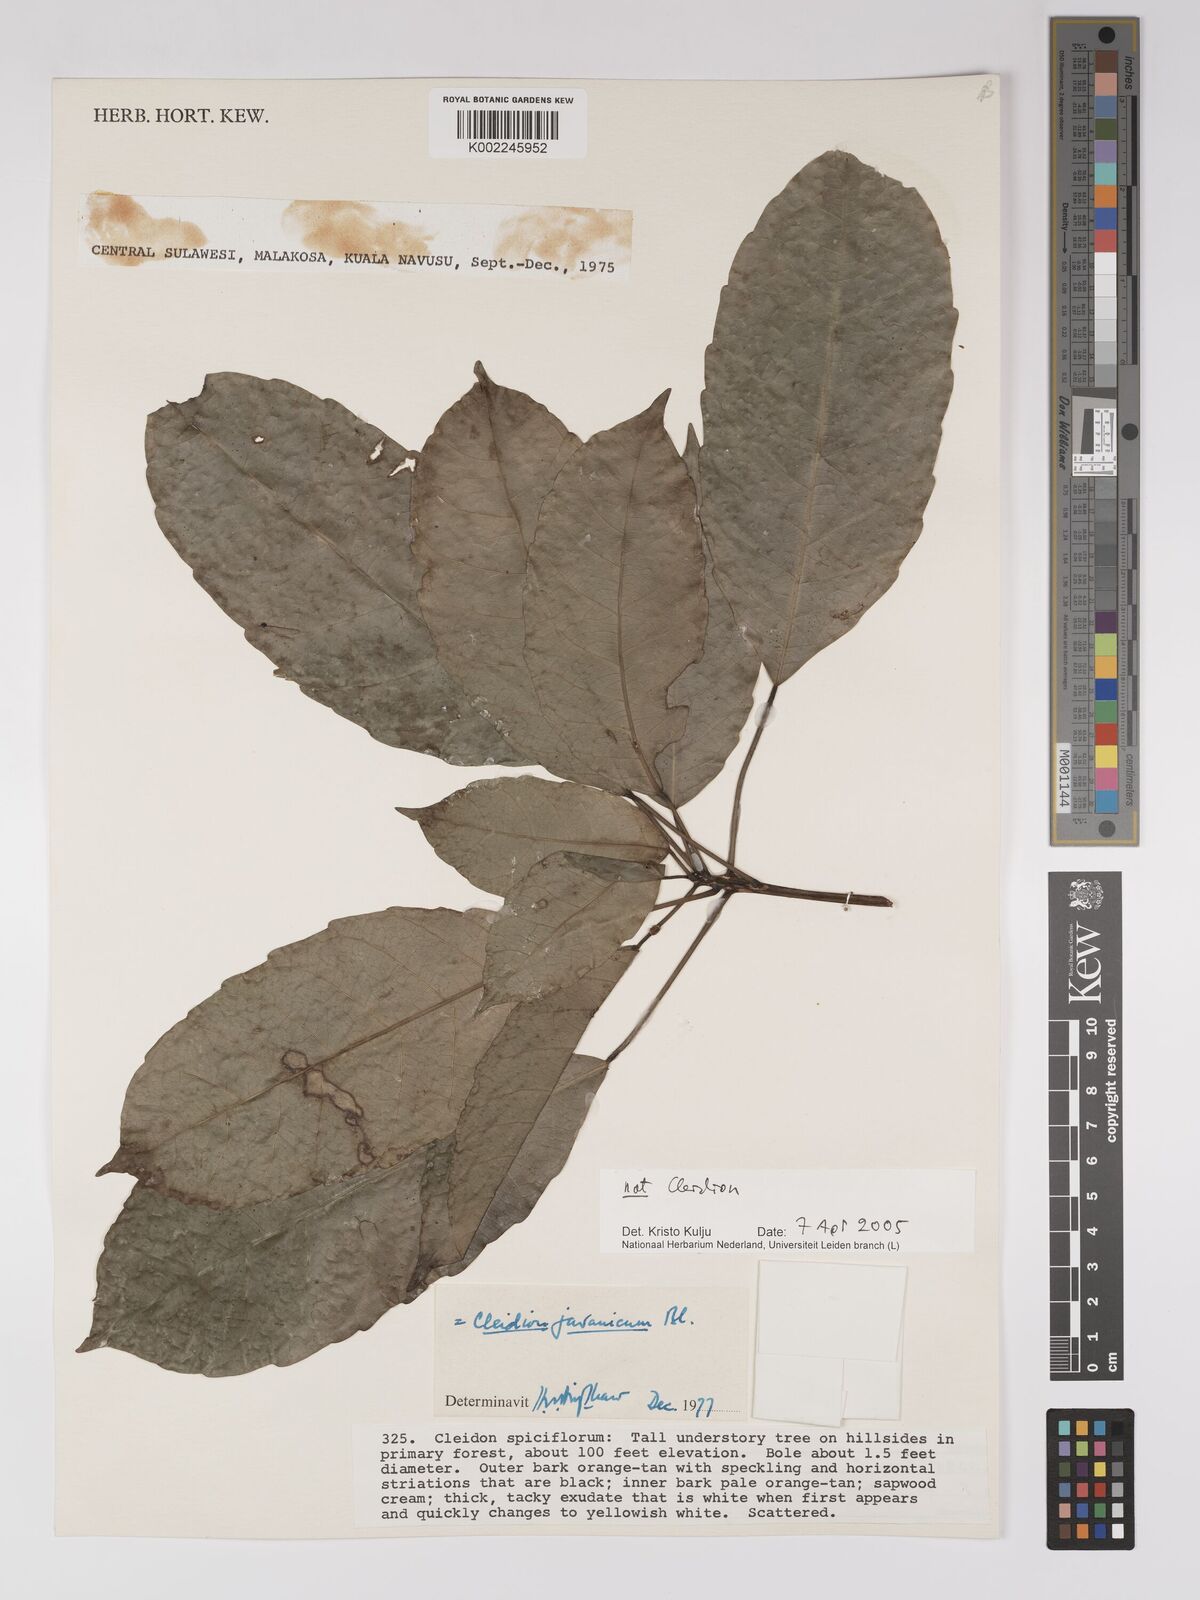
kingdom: Plantae
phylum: Tracheophyta
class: Magnoliopsida
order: Malpighiales
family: Euphorbiaceae
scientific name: Euphorbiaceae
